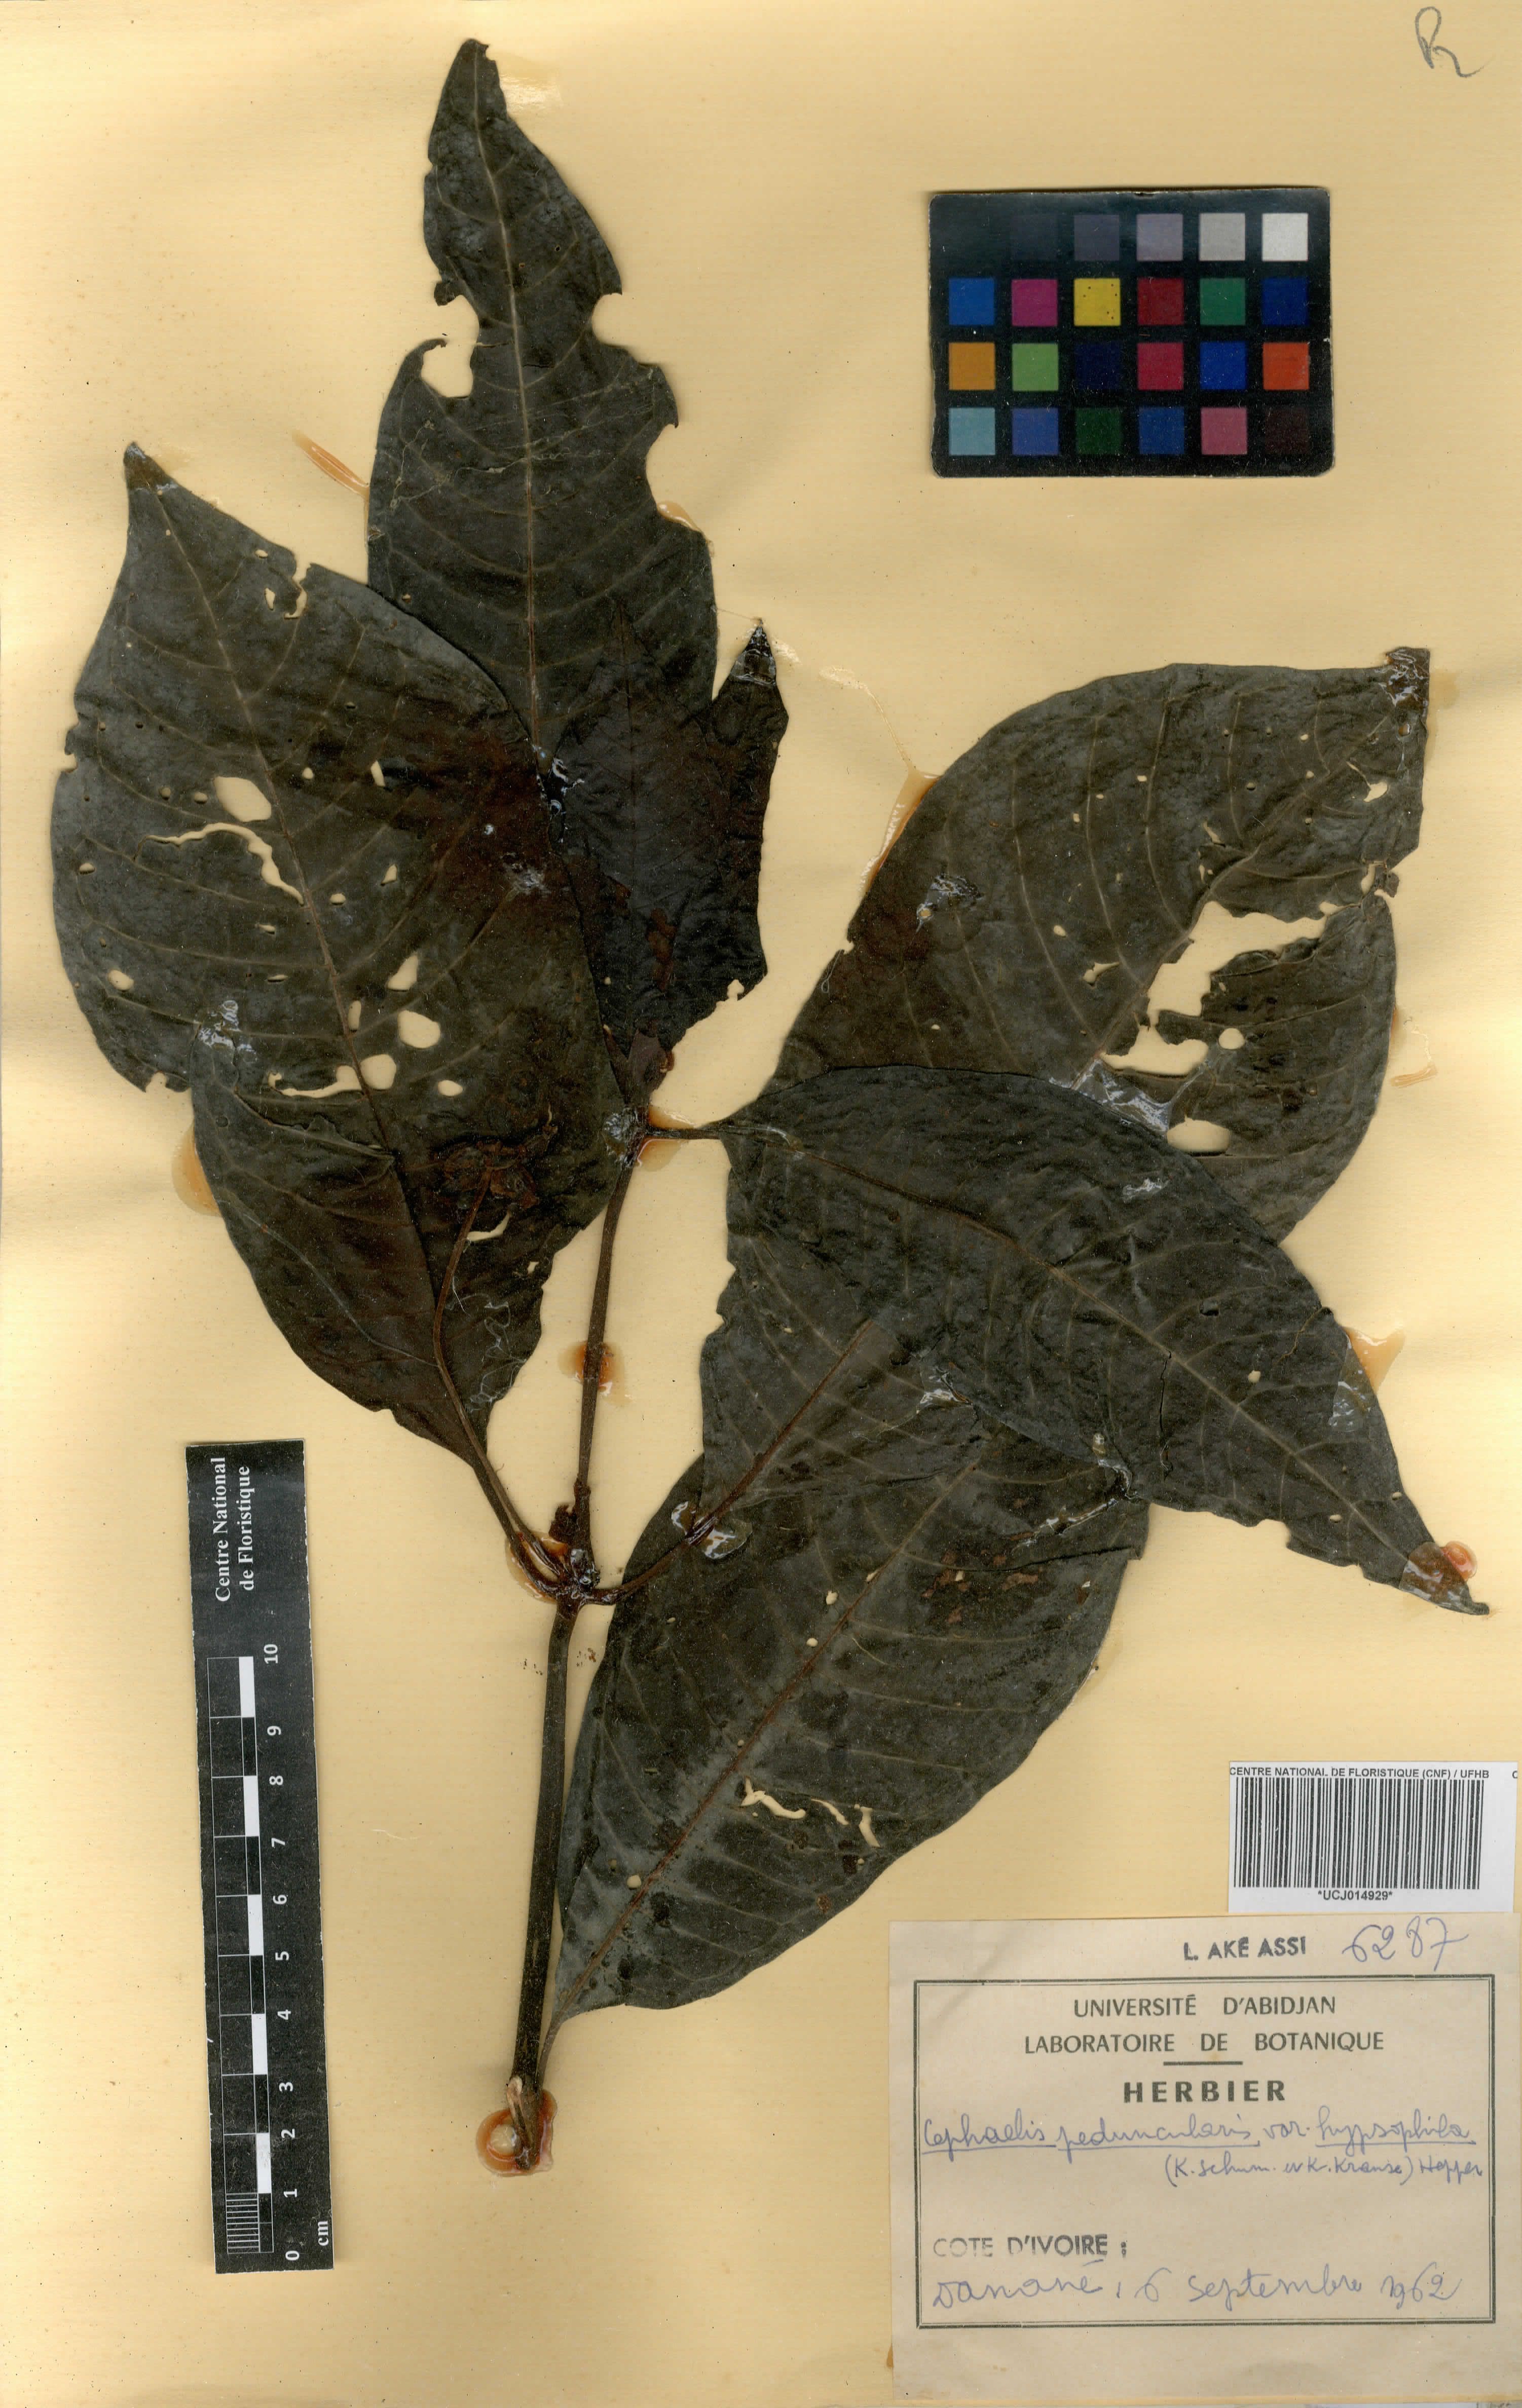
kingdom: Plantae
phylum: Tracheophyta
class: Magnoliopsida
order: Gentianales
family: Rubiaceae
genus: Psychotria
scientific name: Psychotria peduncularis
